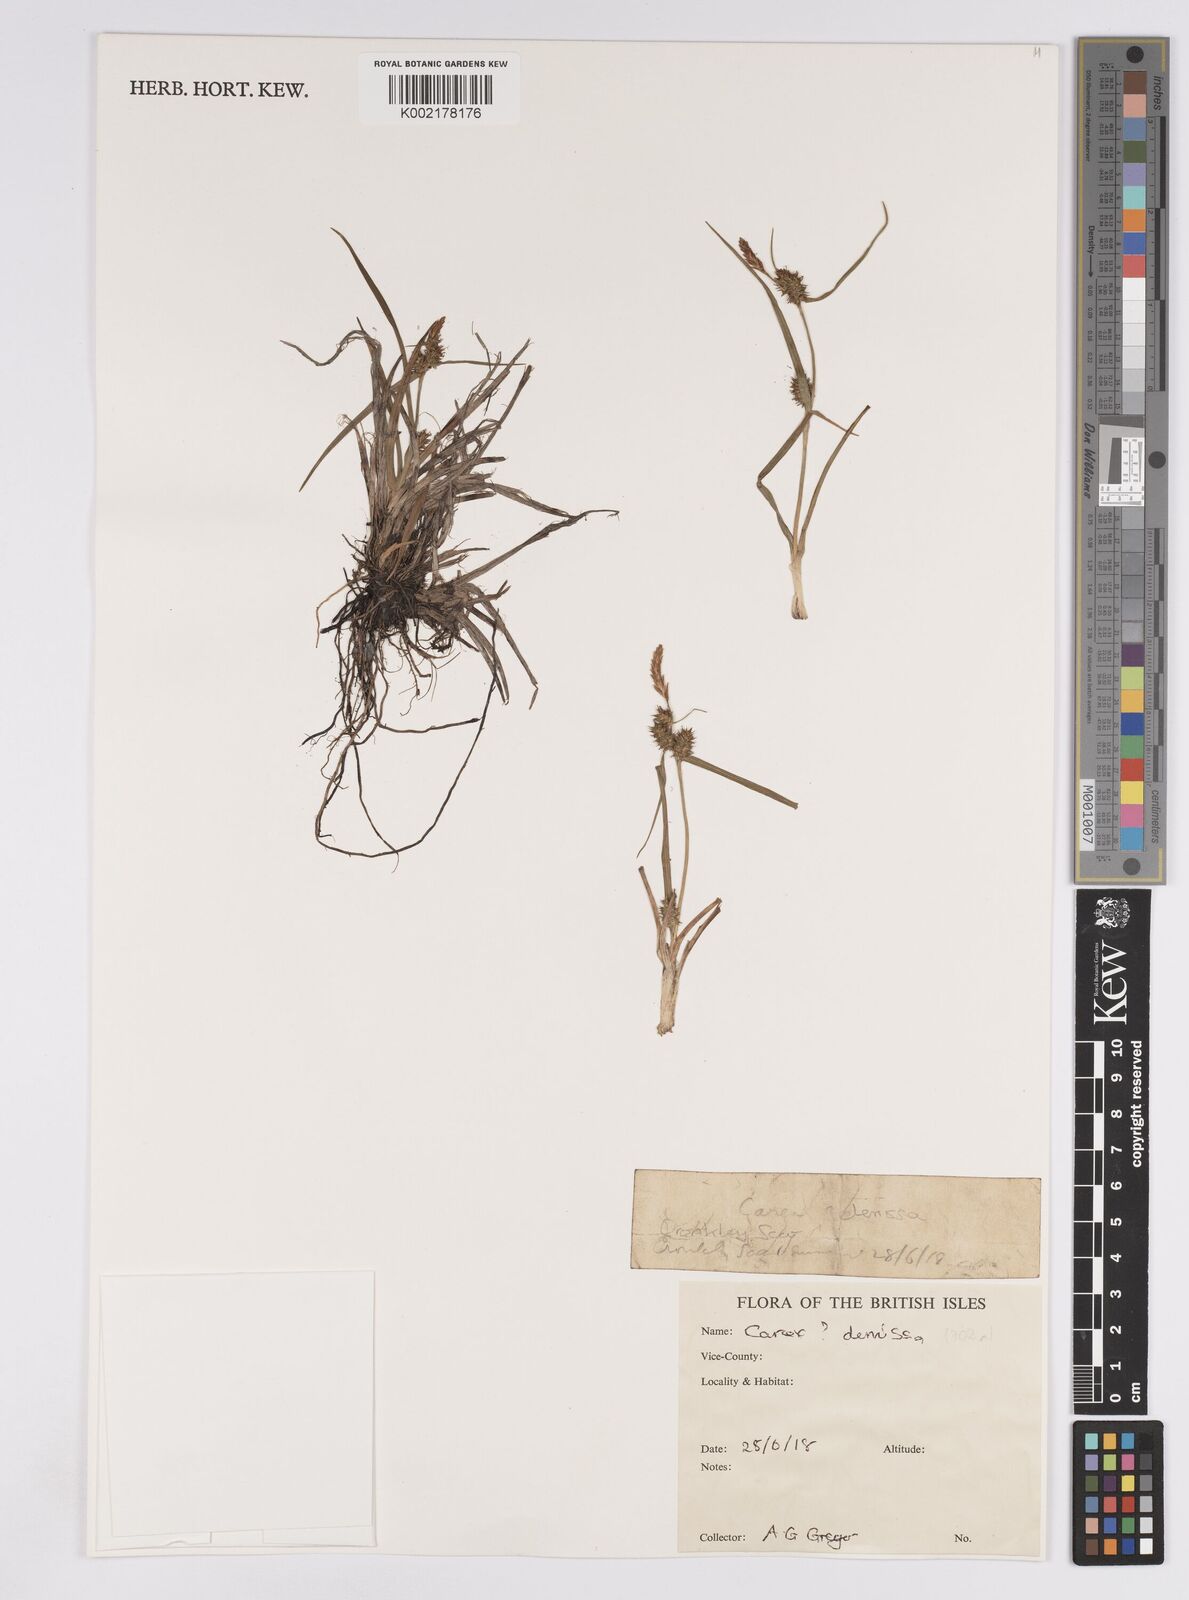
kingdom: Plantae
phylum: Tracheophyta
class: Liliopsida
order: Poales
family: Cyperaceae
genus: Carex
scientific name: Carex demissa
